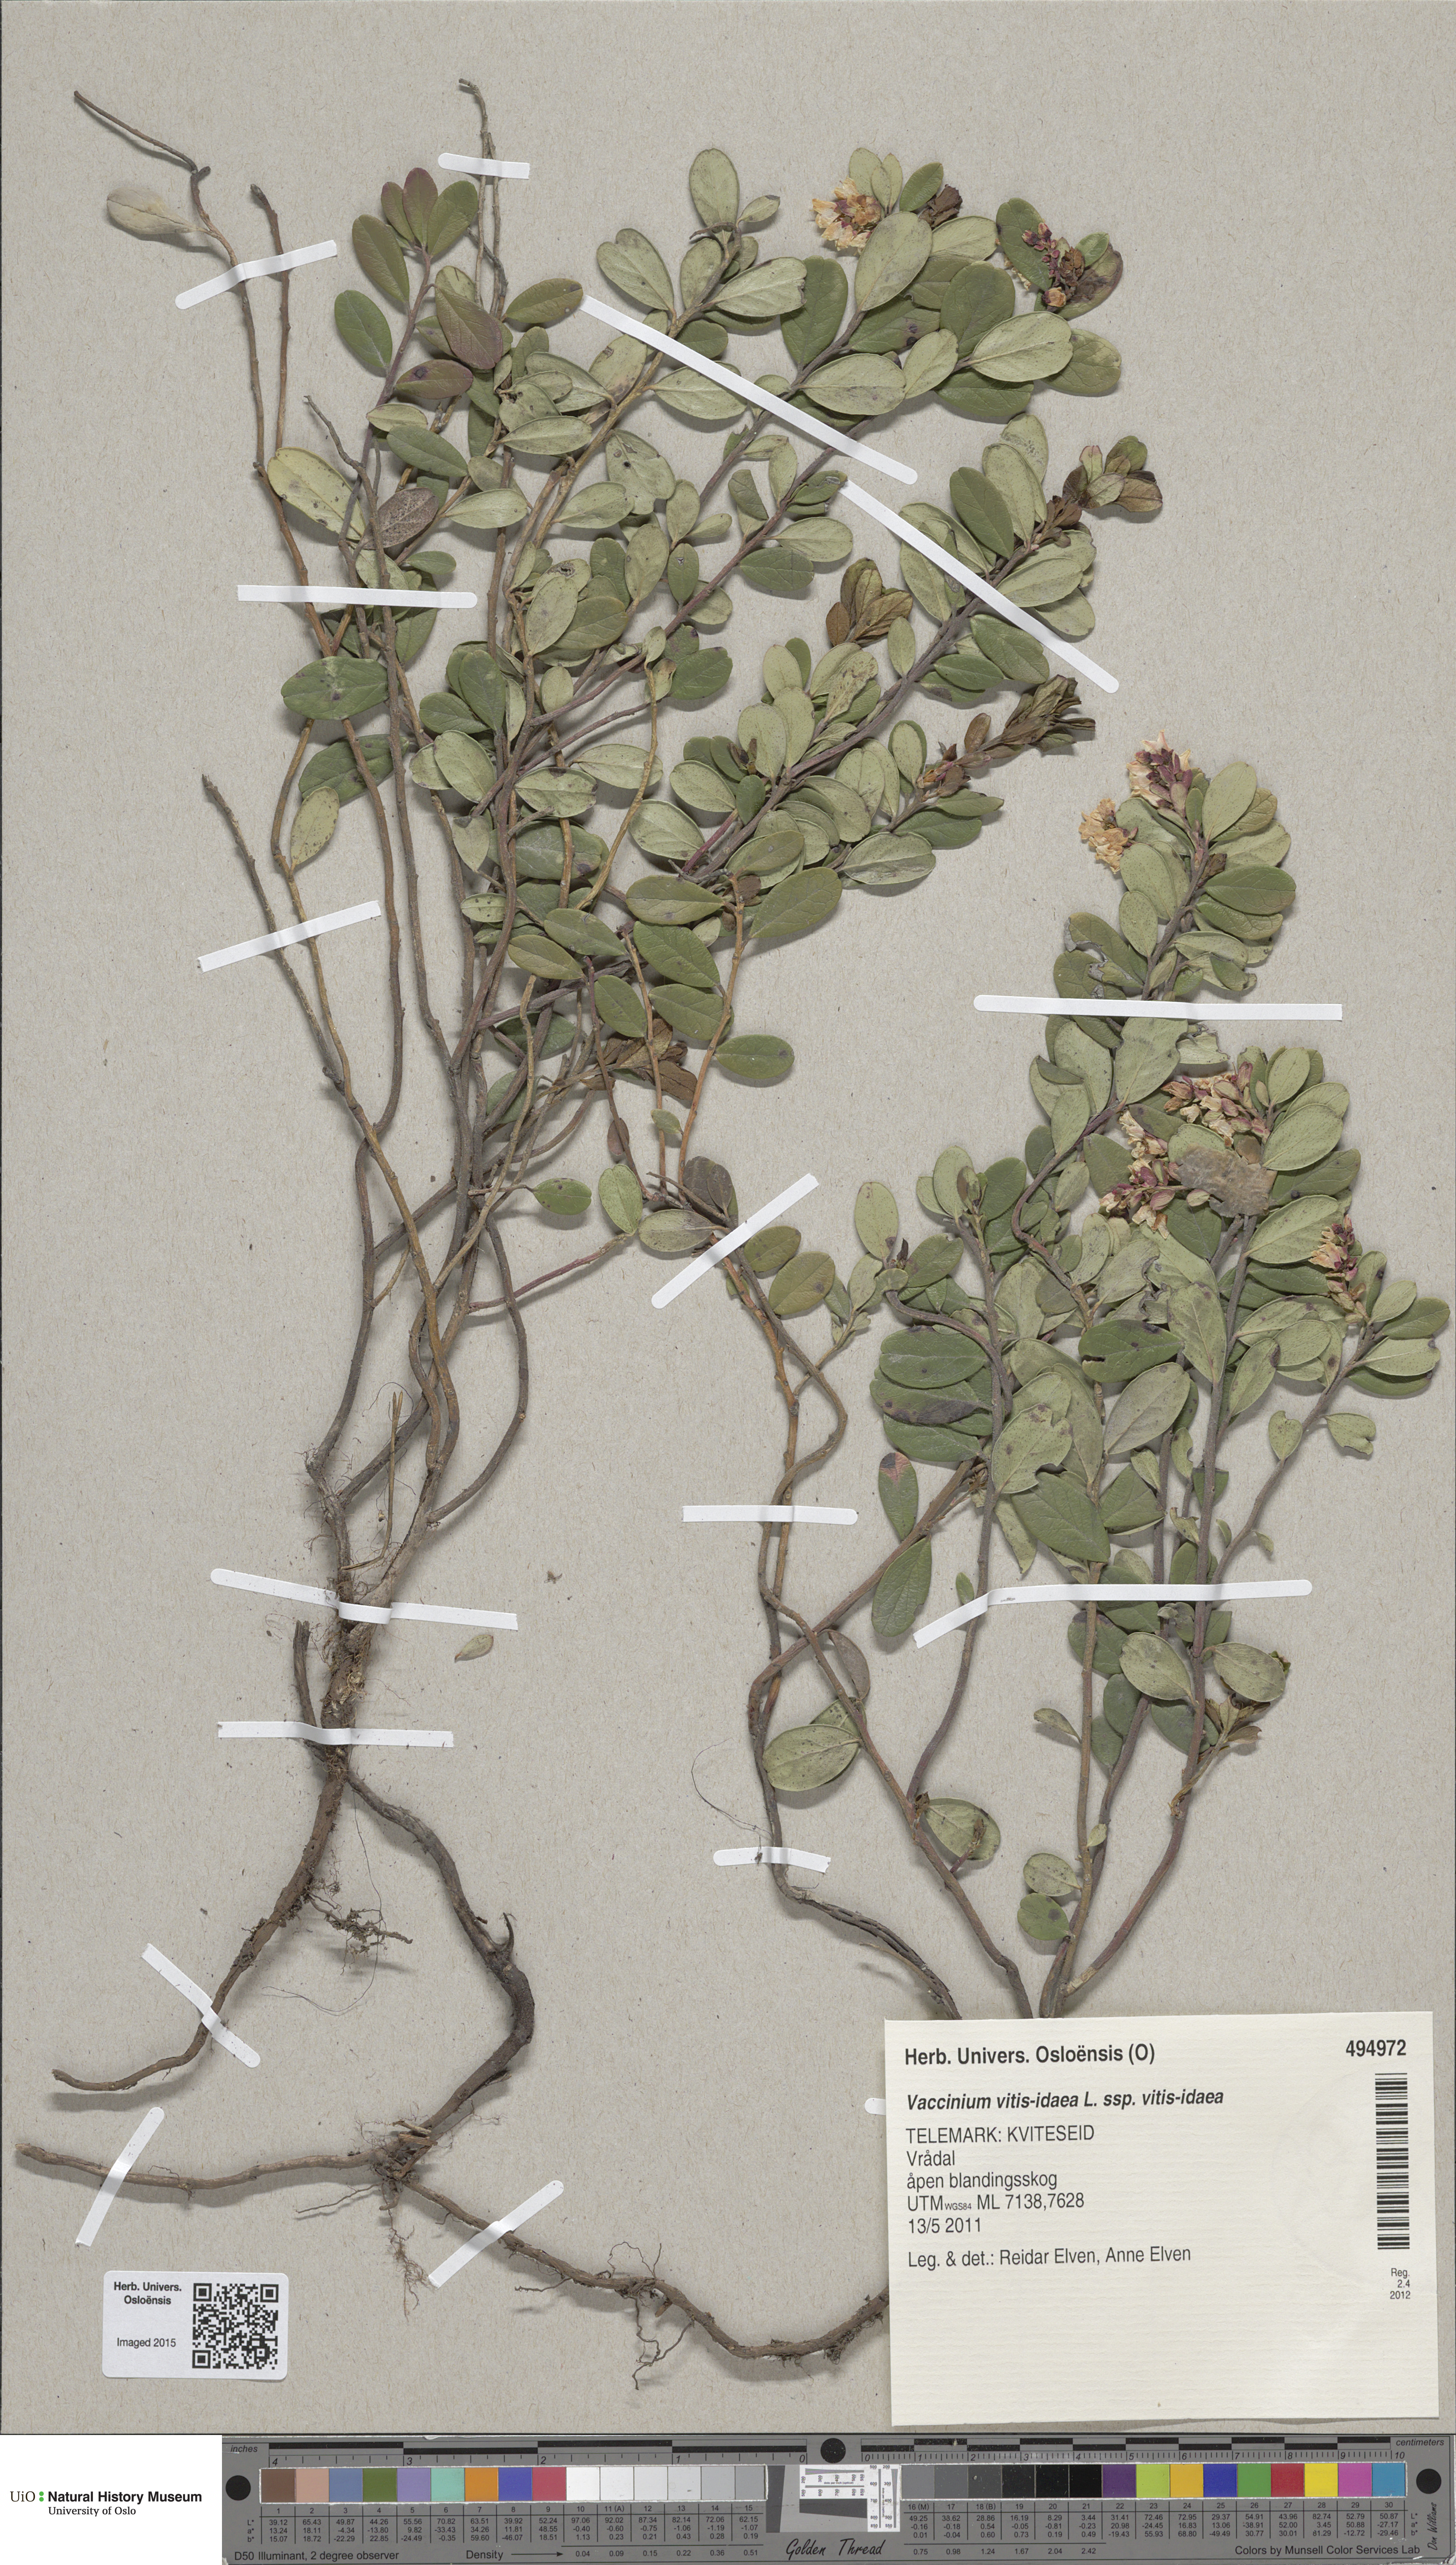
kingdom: Plantae
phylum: Tracheophyta
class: Magnoliopsida
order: Ericales
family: Ericaceae
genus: Vaccinium
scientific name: Vaccinium vitis-idaea
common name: Cowberry
